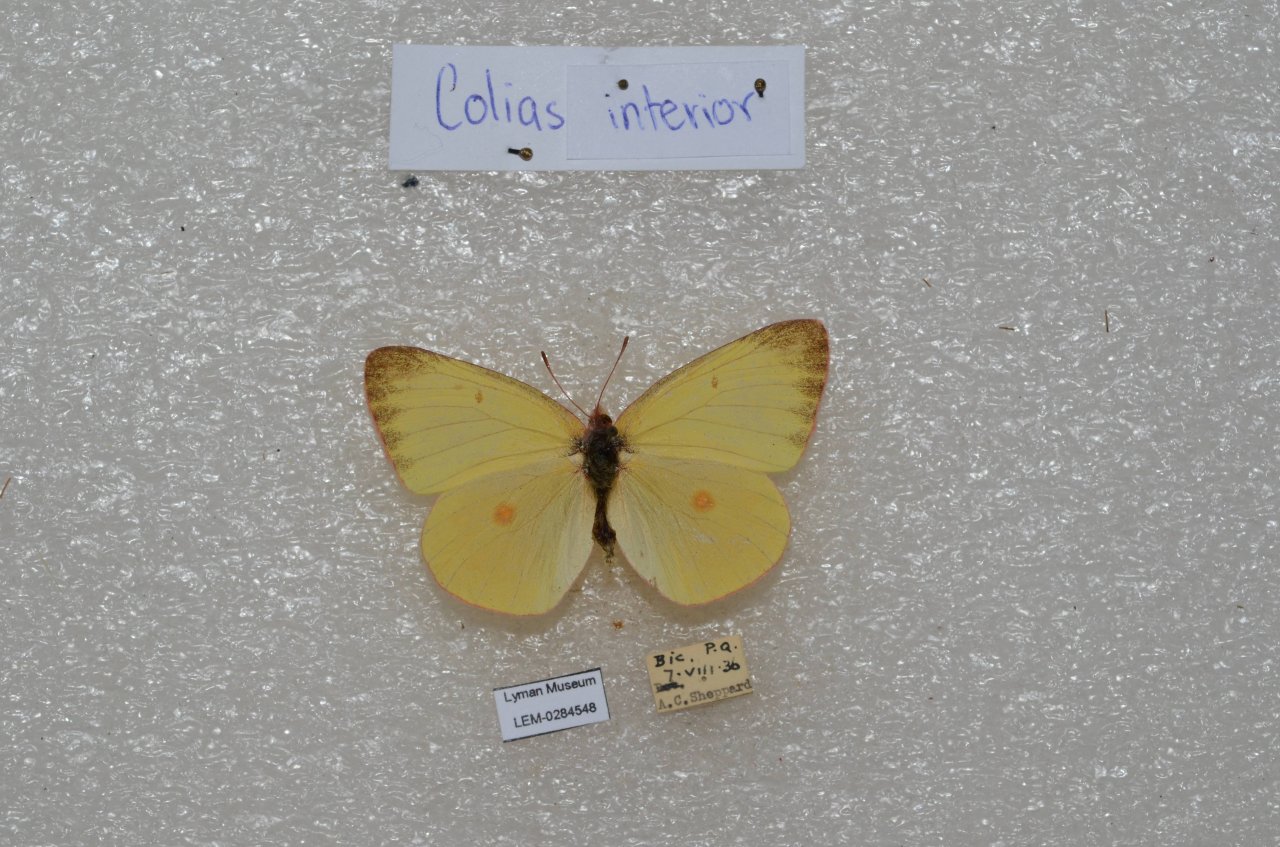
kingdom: Animalia
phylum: Arthropoda
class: Insecta
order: Lepidoptera
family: Pieridae
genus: Colias
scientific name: Colias interior
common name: Pink-edged Sulphur
